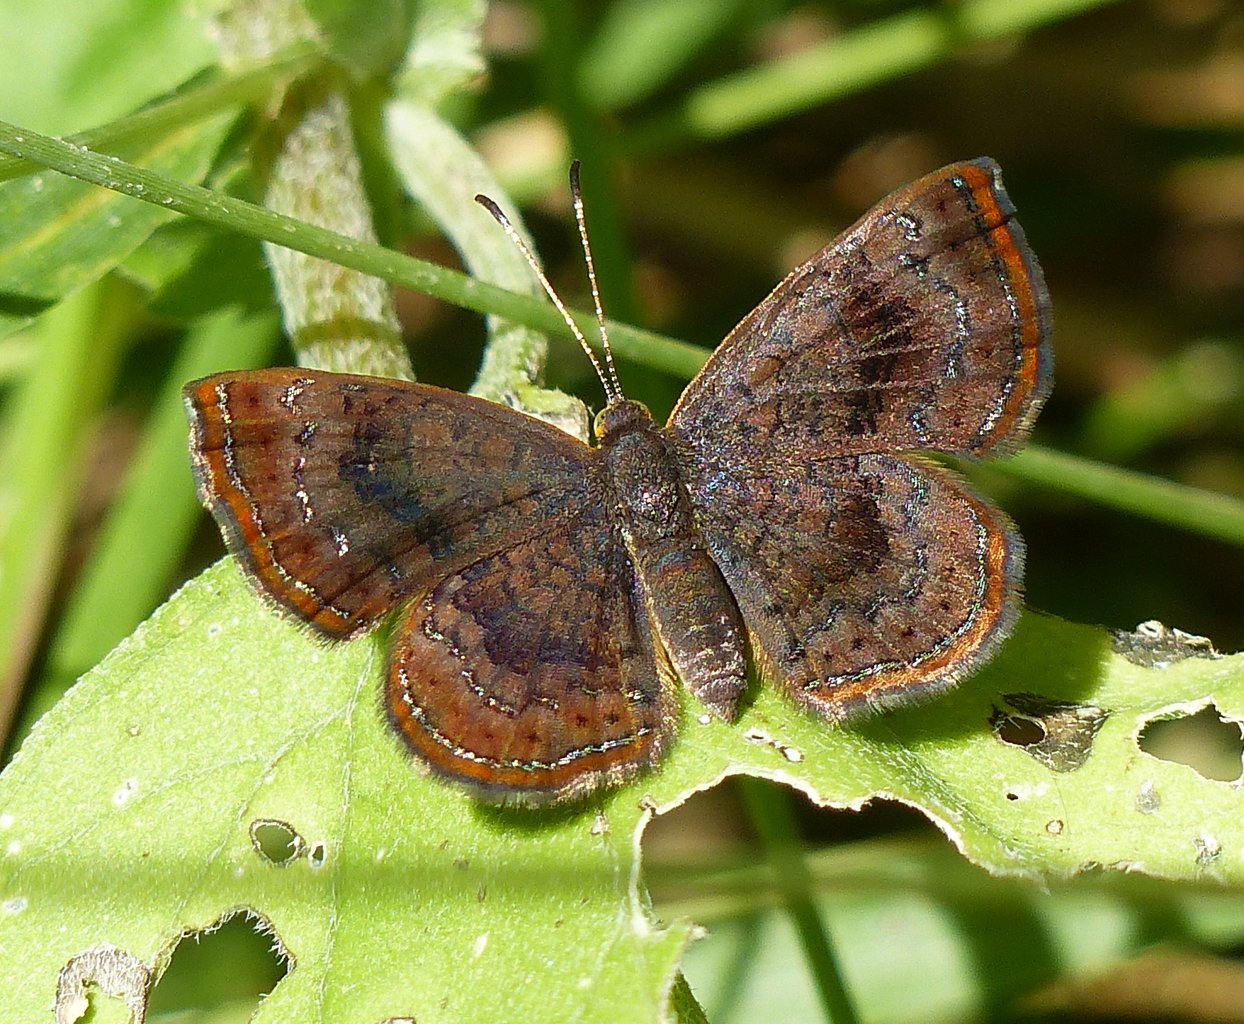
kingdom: Animalia
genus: Calephelis
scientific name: Calephelis perditalis
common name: Rounded Metalmark
